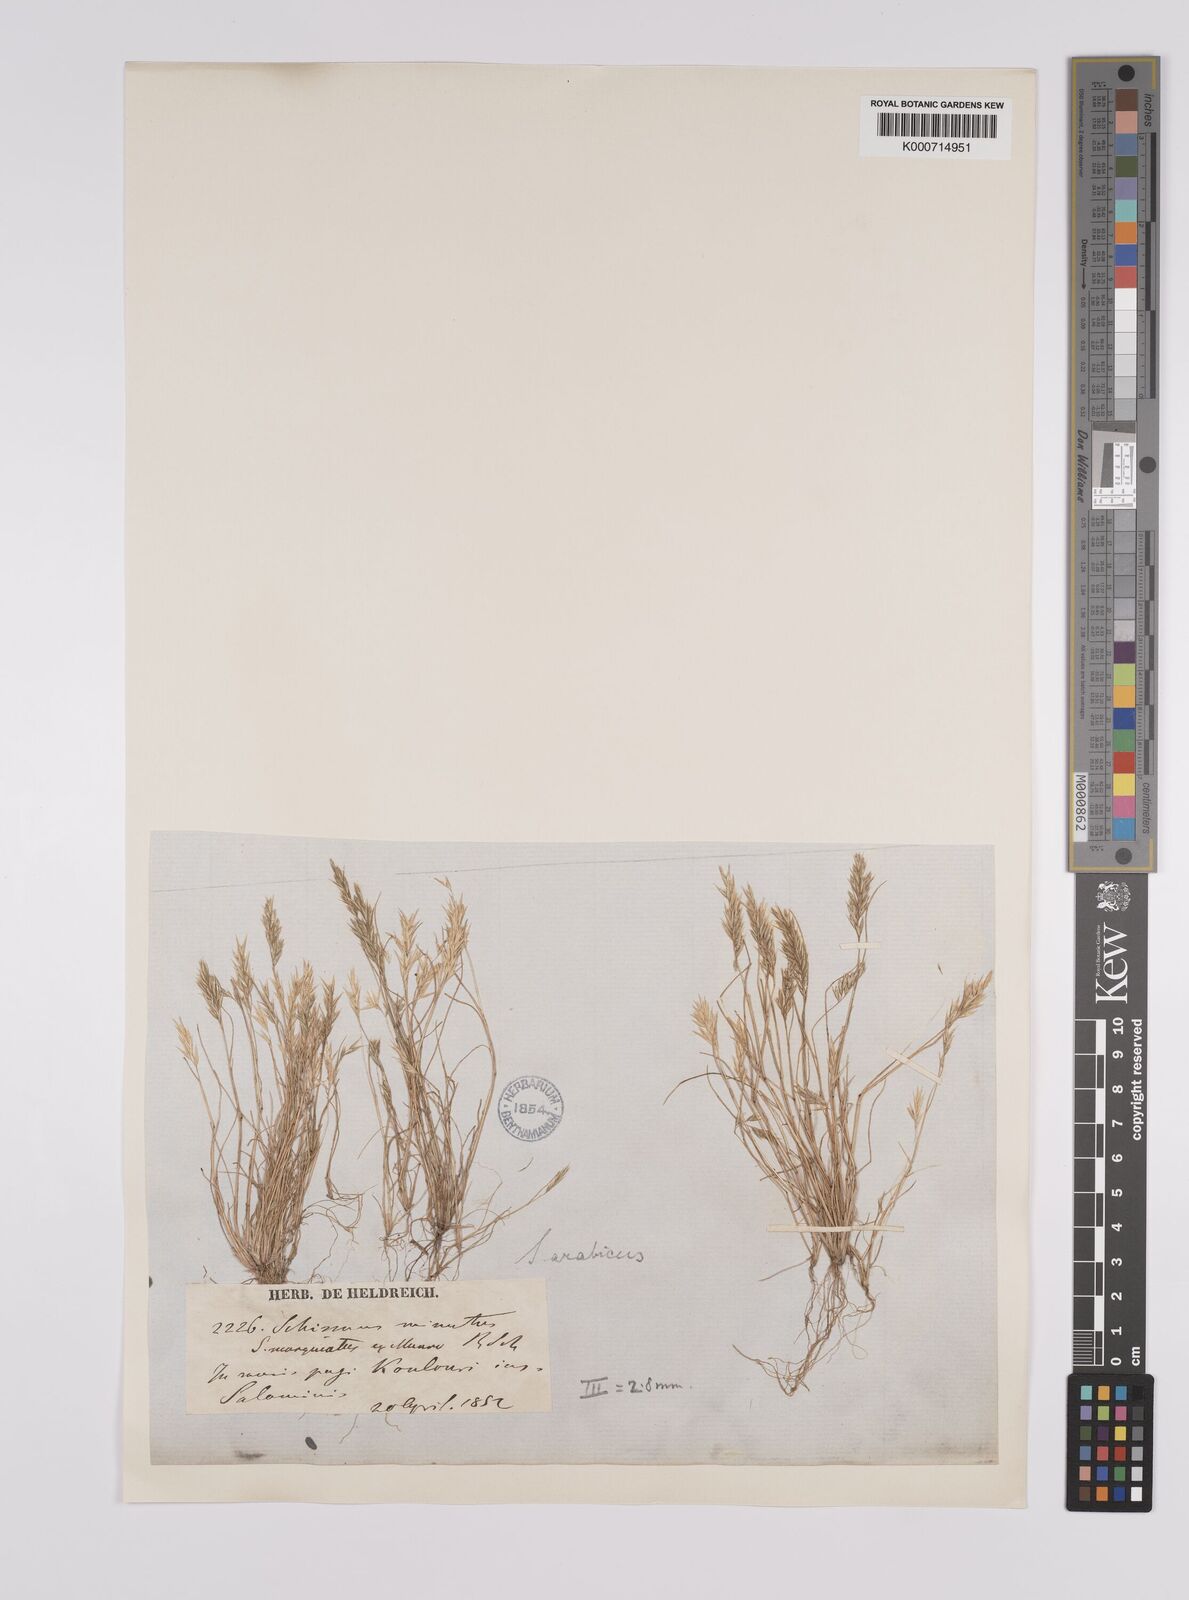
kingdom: Plantae
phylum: Tracheophyta
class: Liliopsida
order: Poales
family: Poaceae
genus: Schismus
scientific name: Schismus arabicus
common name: Arabian schismus
